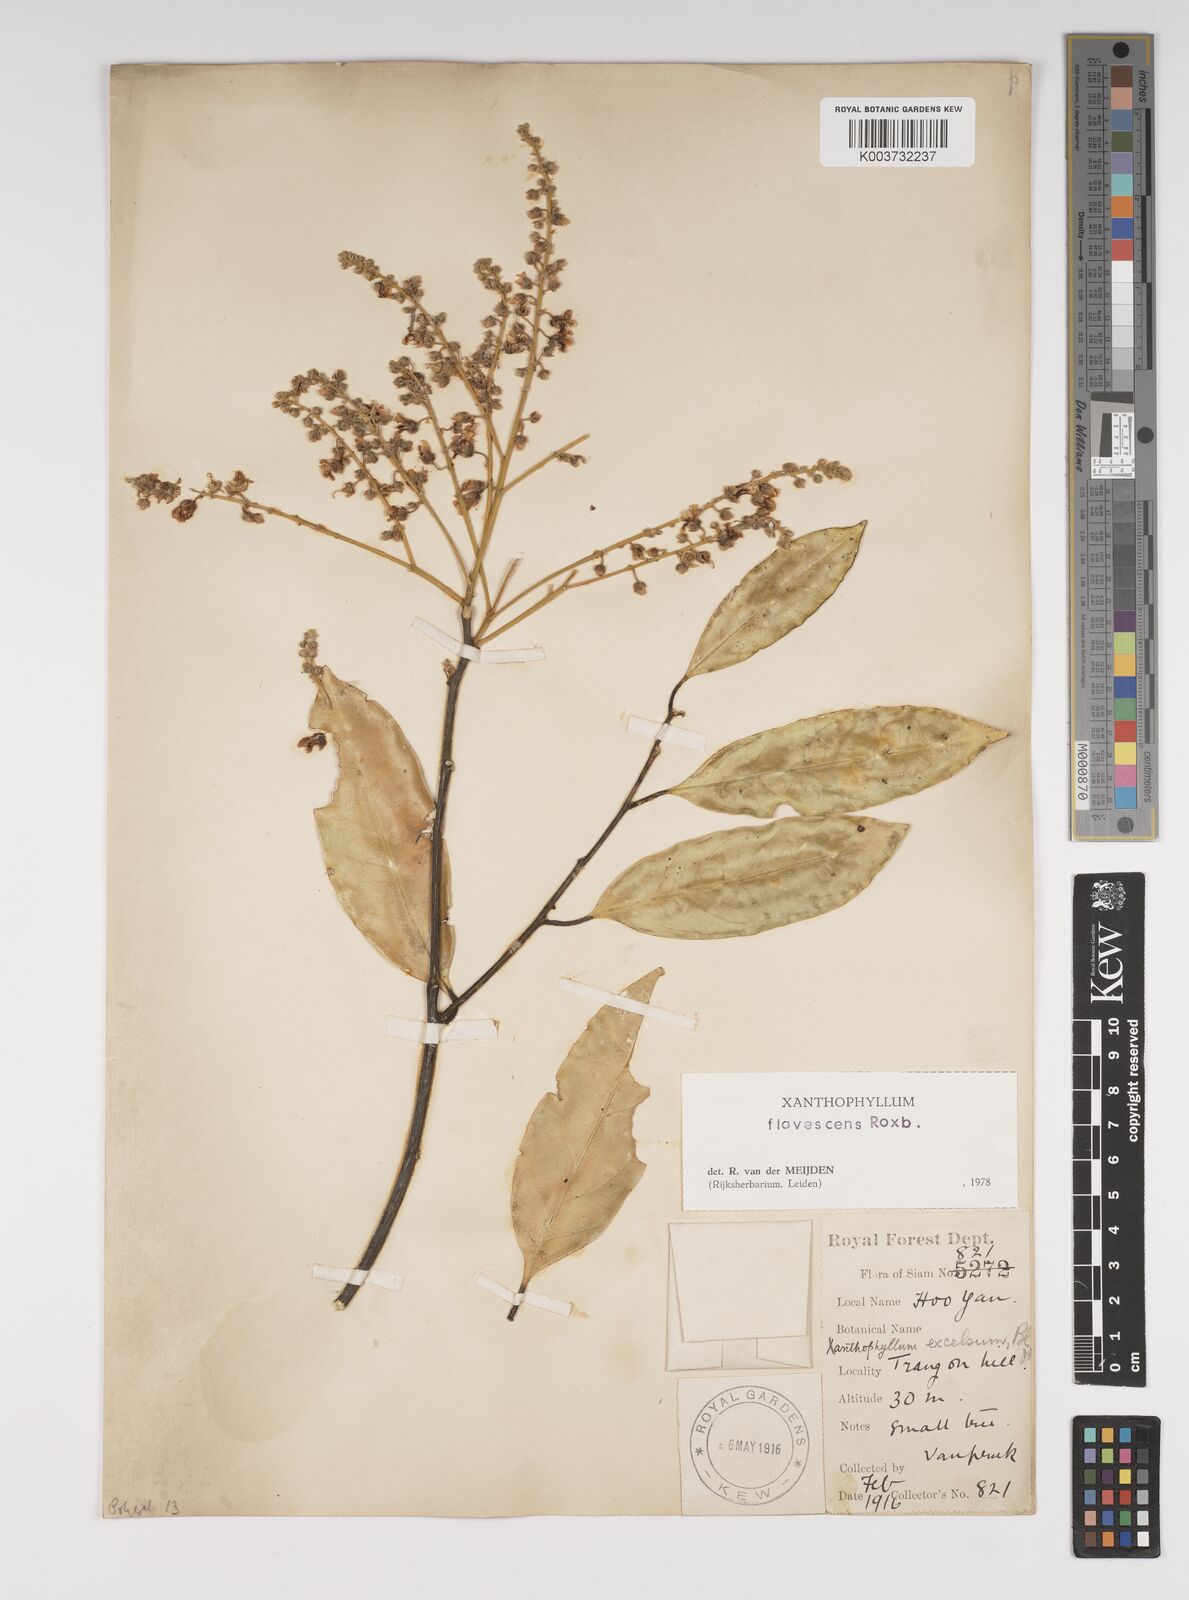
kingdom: Plantae
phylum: Tracheophyta
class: Magnoliopsida
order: Fabales
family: Polygalaceae
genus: Xanthophyllum
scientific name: Xanthophyllum flavescens
